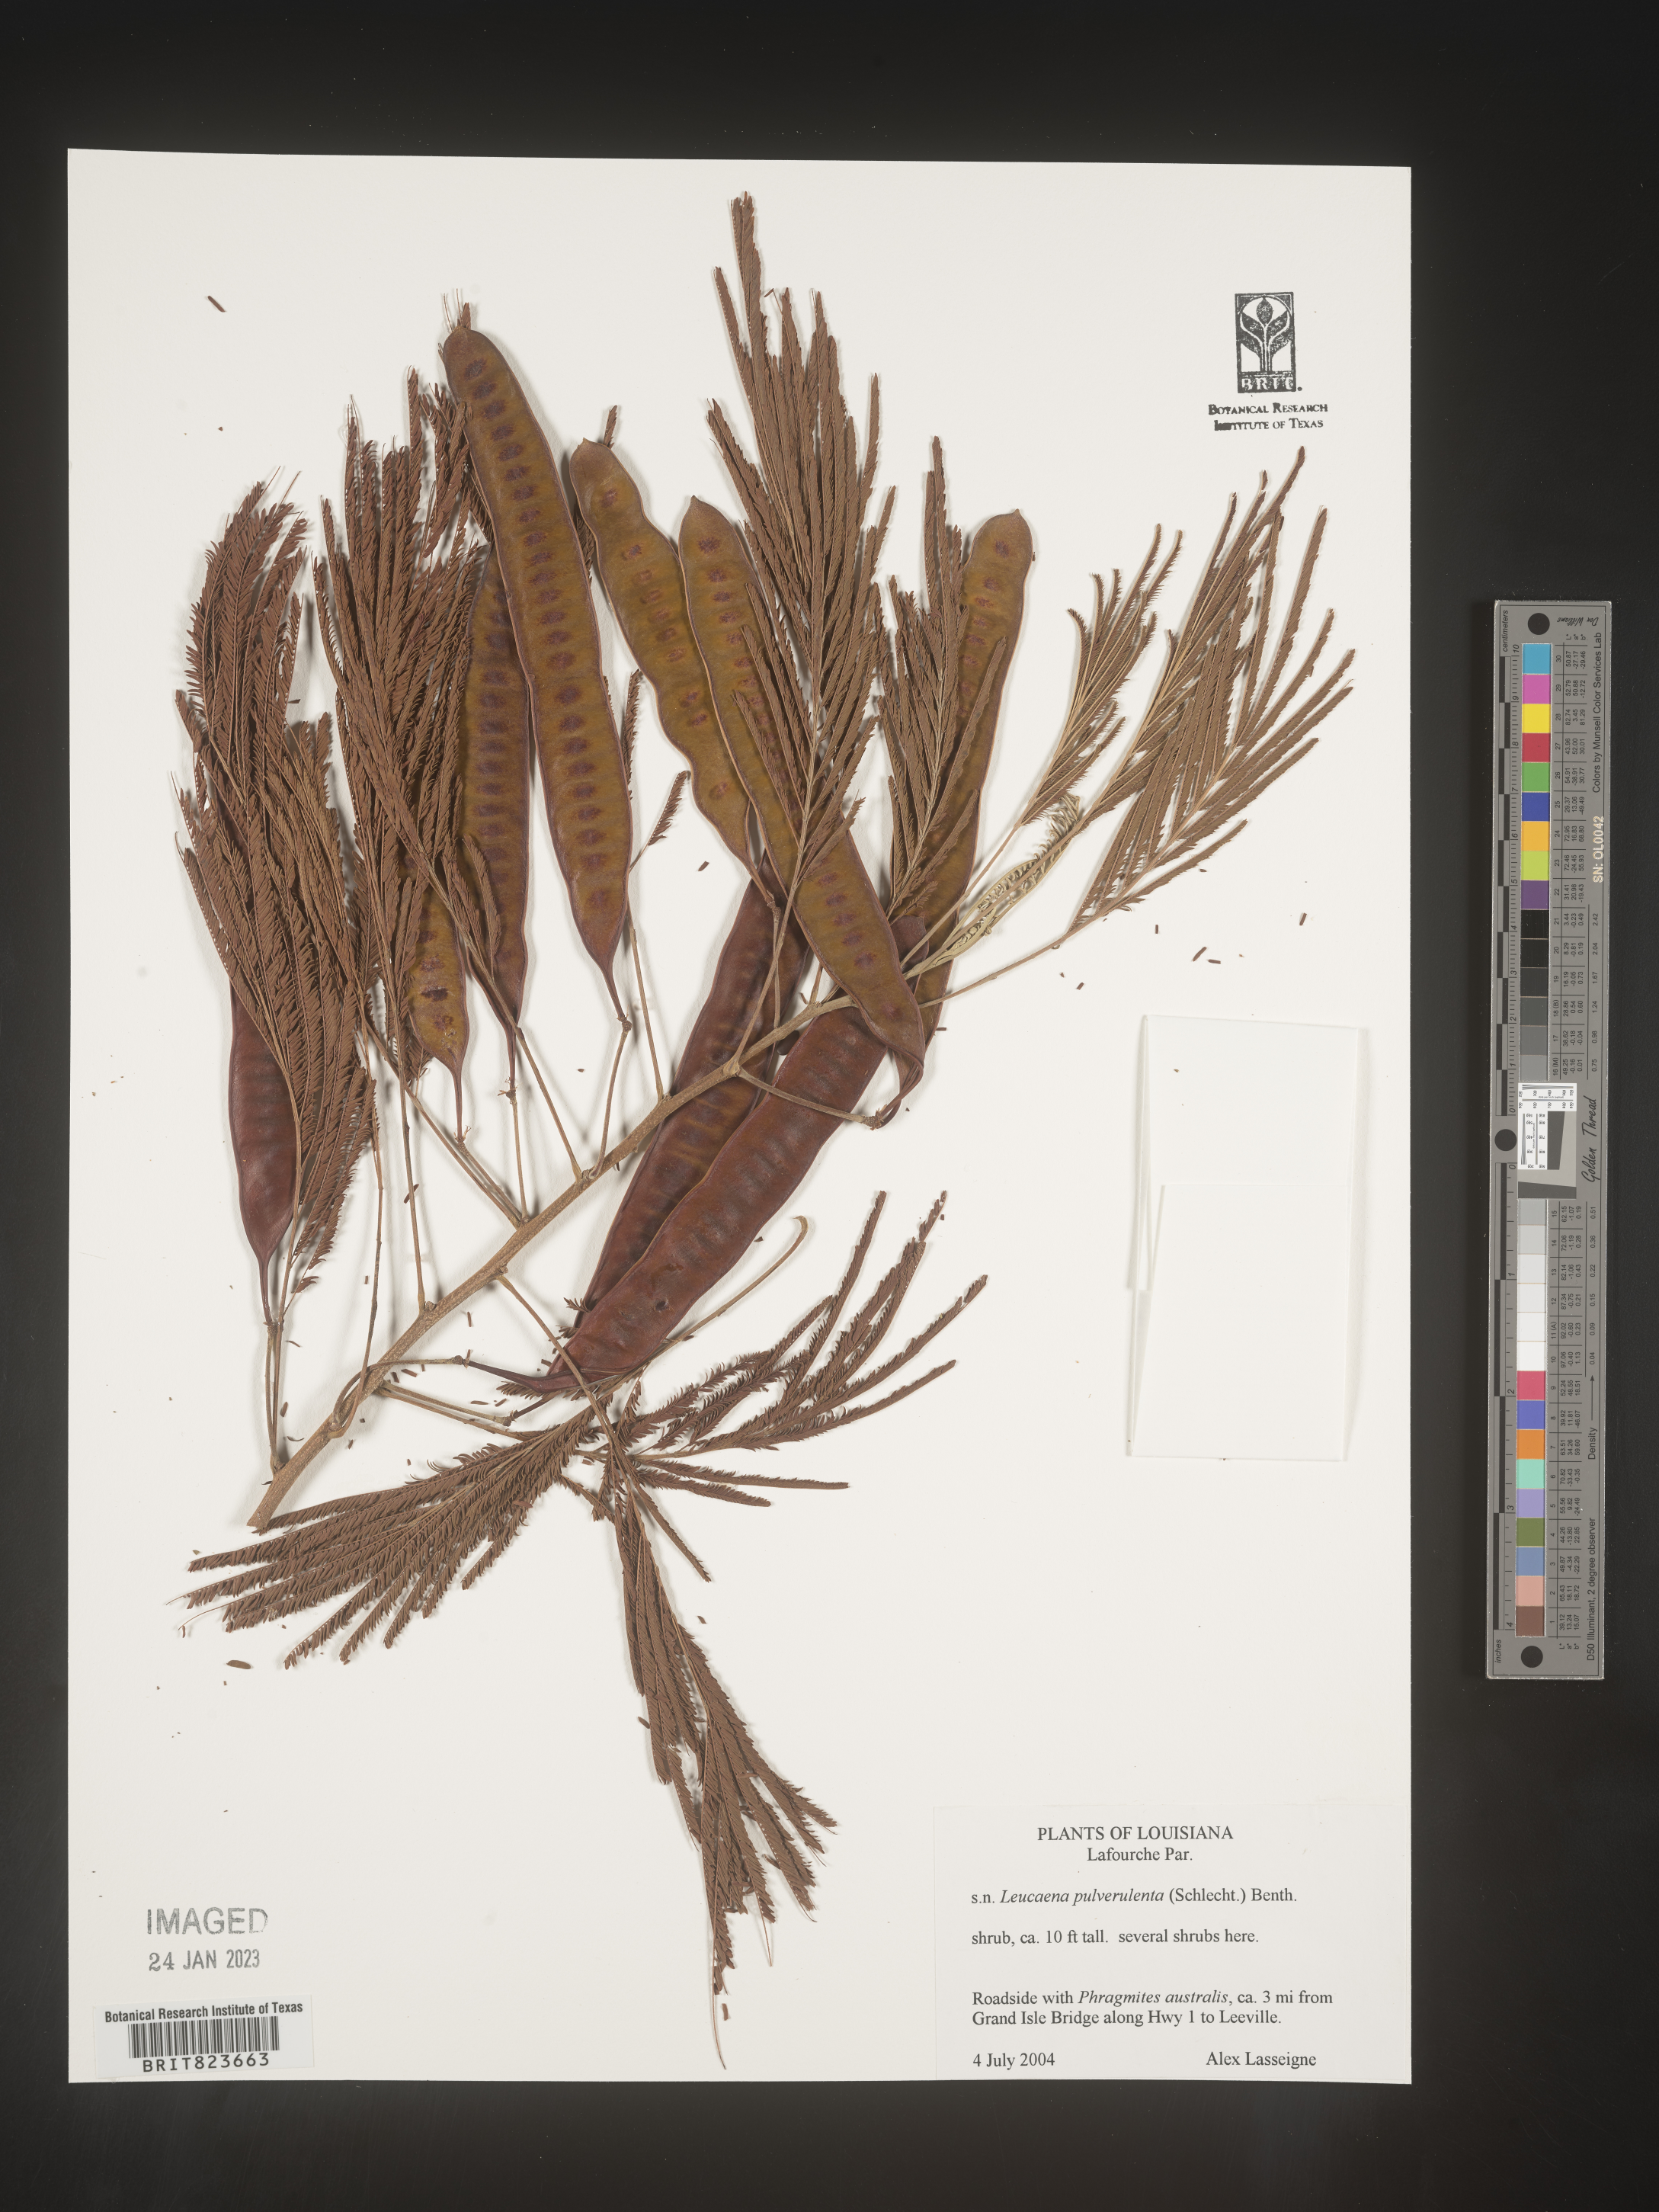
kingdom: Plantae
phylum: Tracheophyta
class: Magnoliopsida
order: Fabales
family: Fabaceae
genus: Leucaena
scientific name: Leucaena
